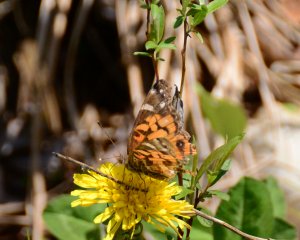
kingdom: Animalia
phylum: Arthropoda
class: Insecta
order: Lepidoptera
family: Nymphalidae
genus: Vanessa
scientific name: Vanessa virginiensis
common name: American Lady
